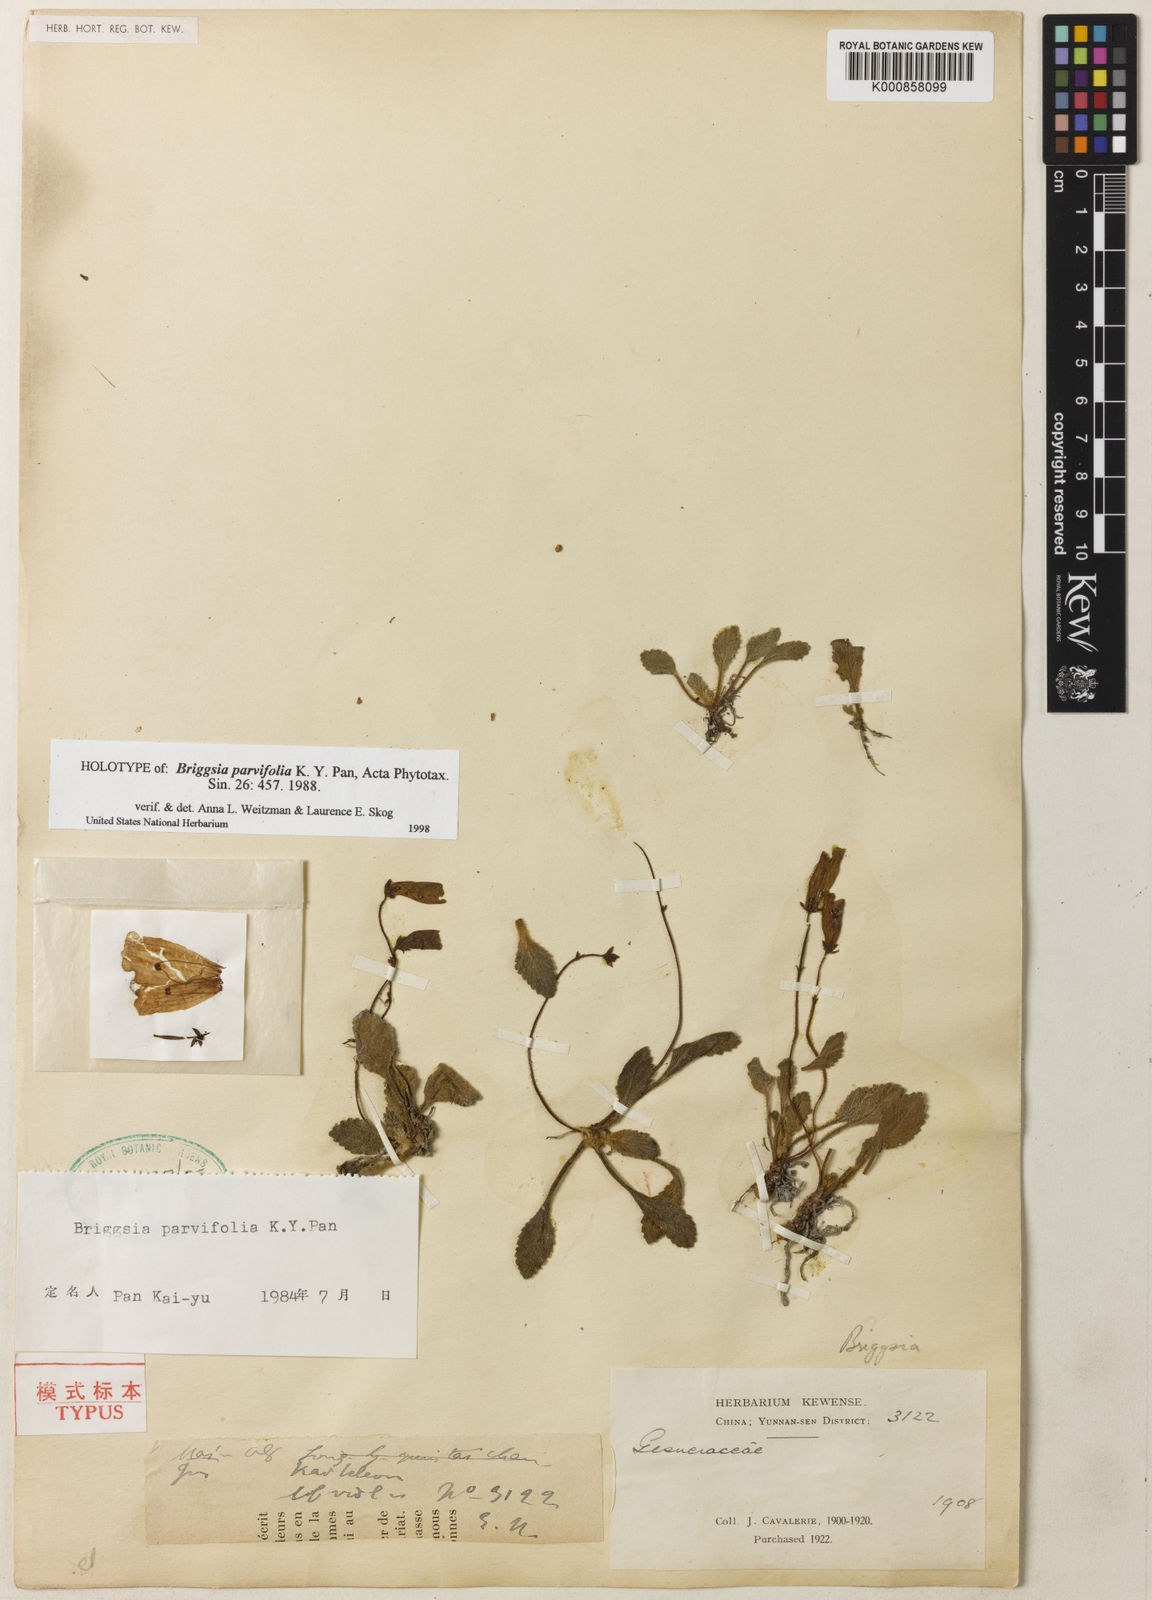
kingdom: Plantae
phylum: Tracheophyta
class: Magnoliopsida
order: Lamiales
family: Gesneriaceae
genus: Oreocharis
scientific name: Oreocharis
